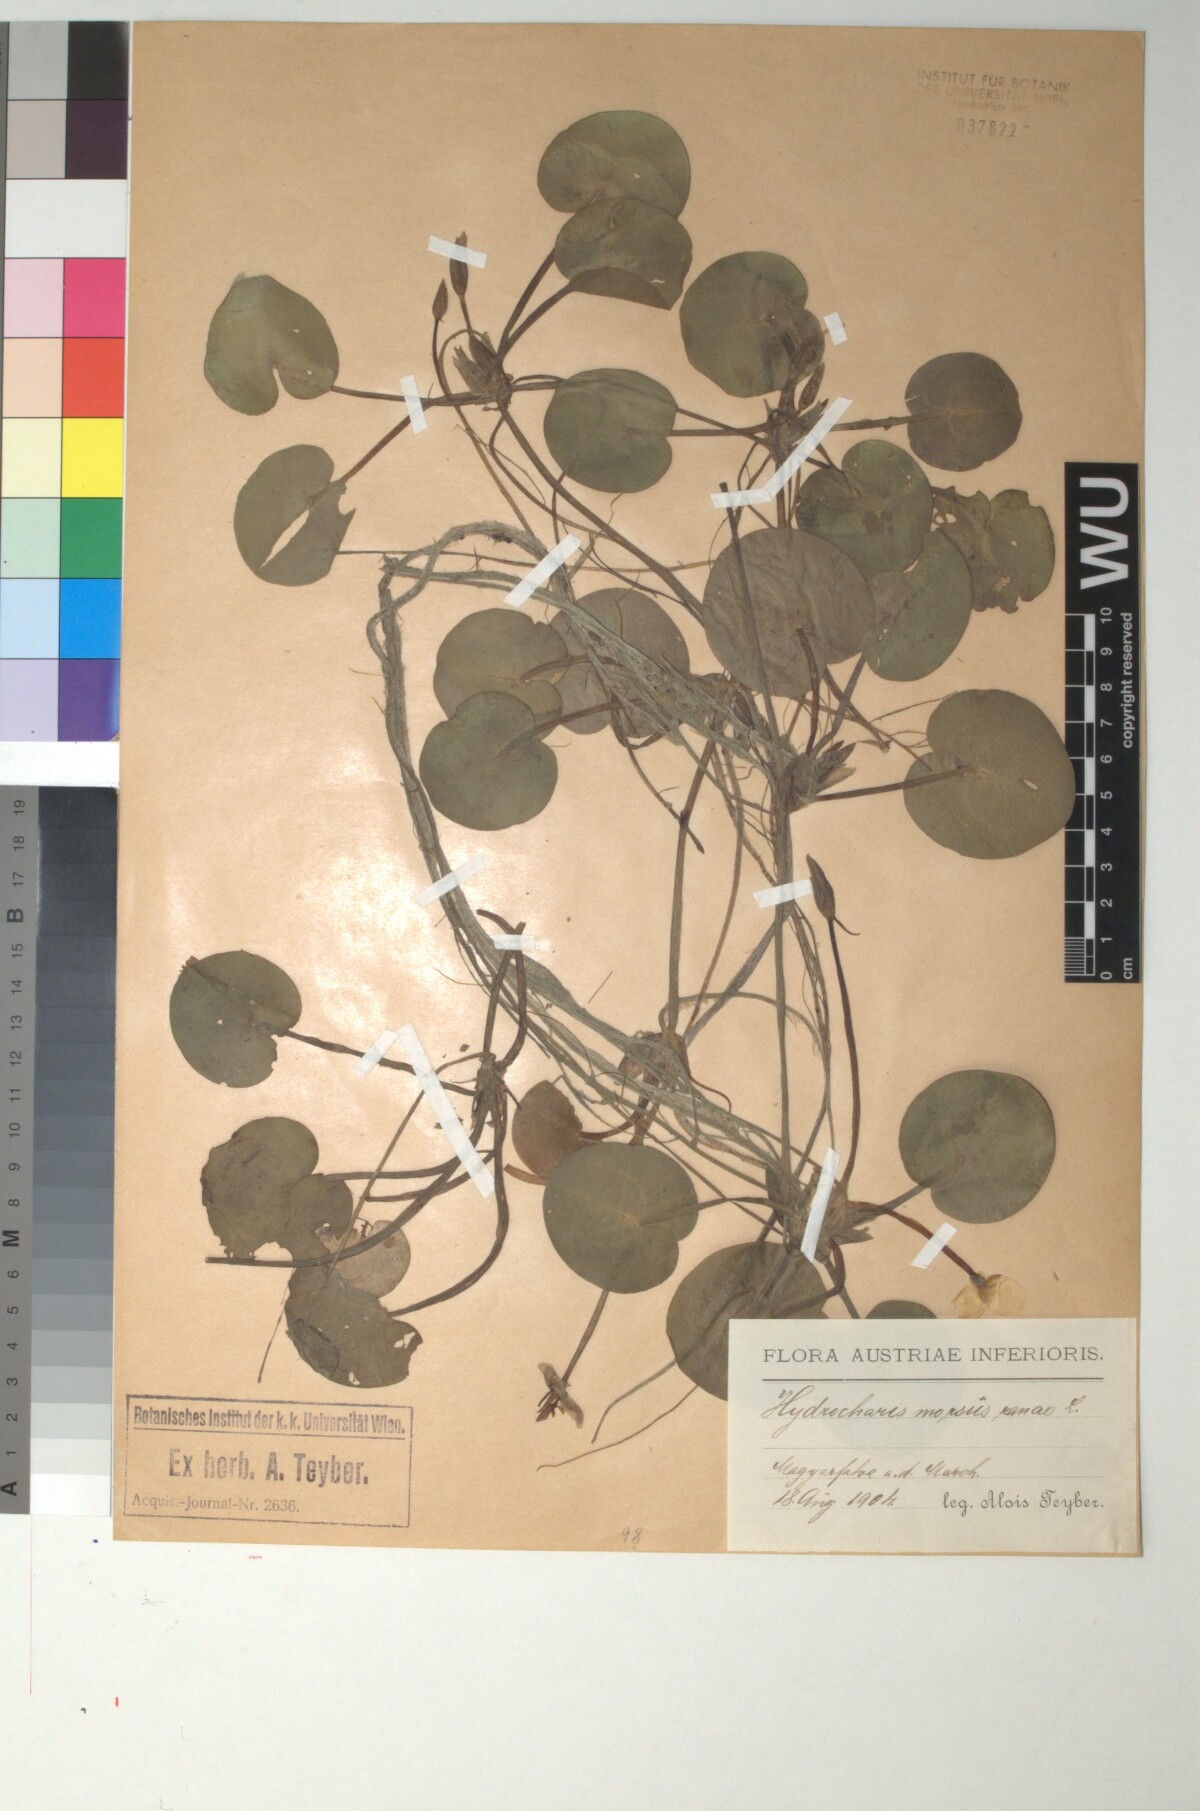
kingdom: Plantae
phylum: Tracheophyta
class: Liliopsida
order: Alismatales
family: Hydrocharitaceae
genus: Hydrocharis
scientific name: Hydrocharis morsus-ranae
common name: Frogbit
